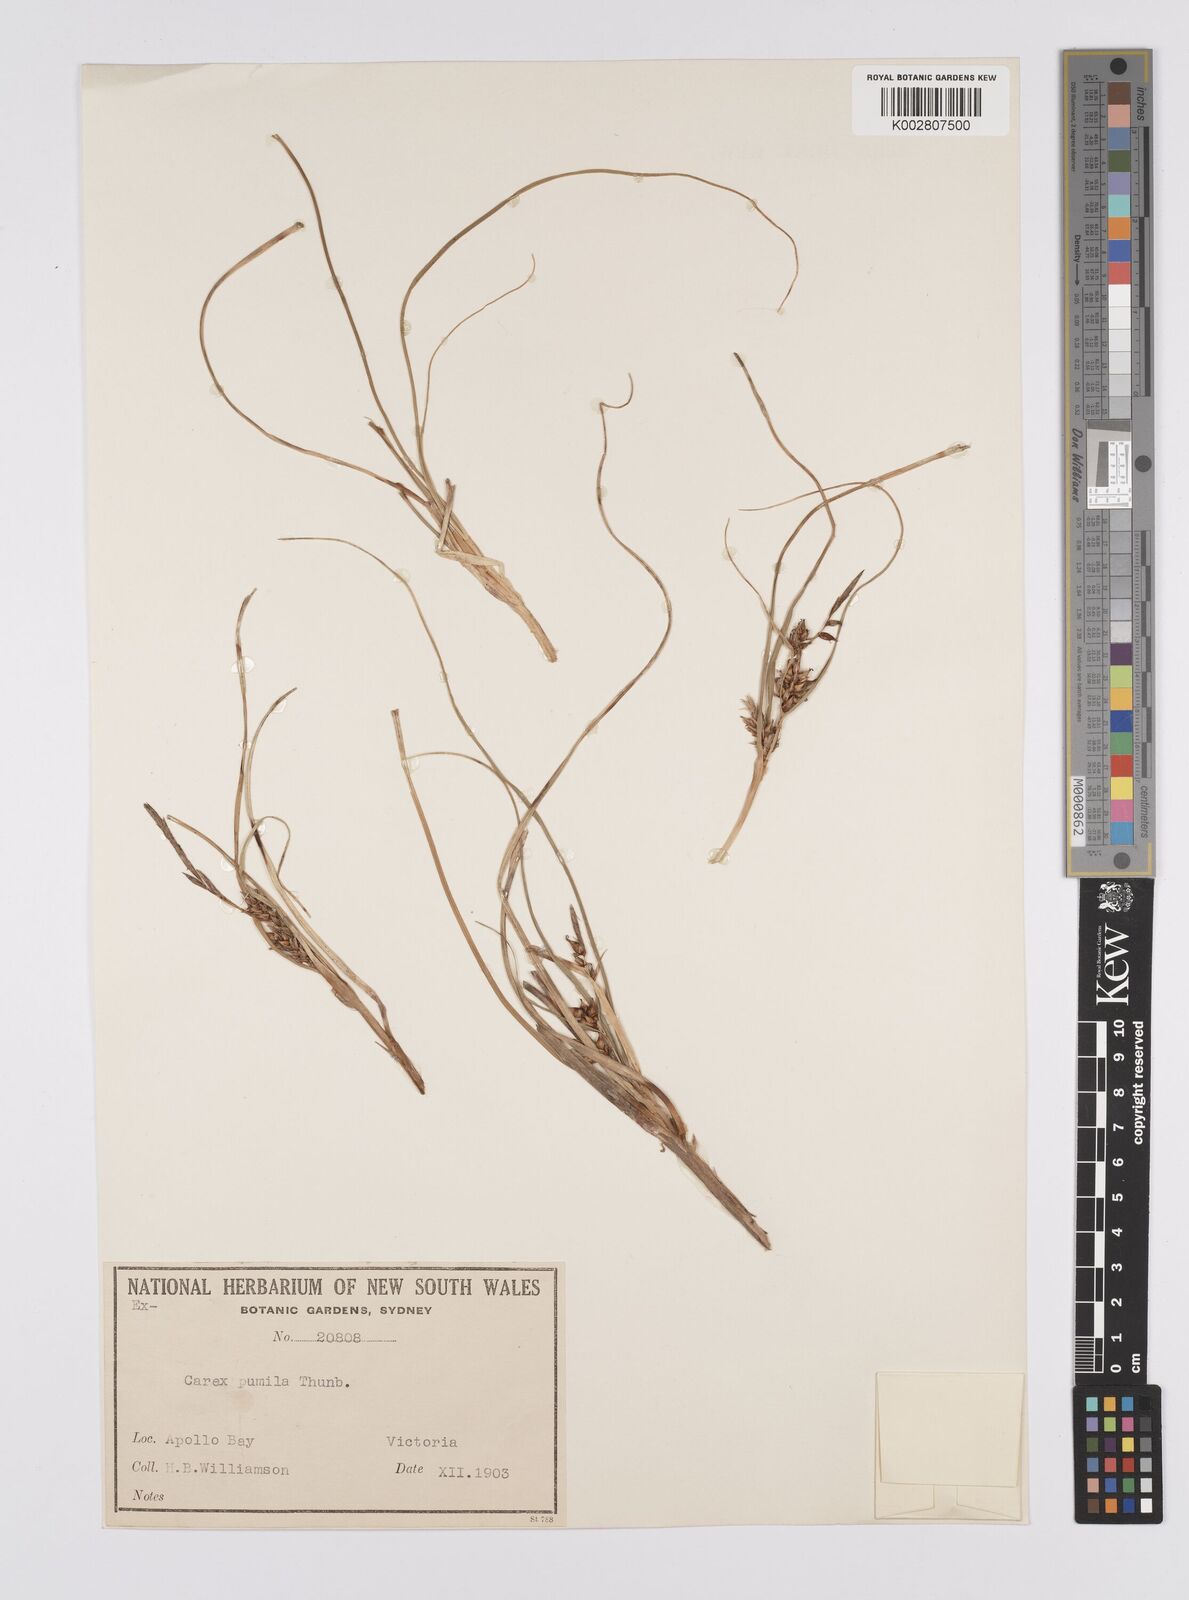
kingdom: Plantae
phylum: Tracheophyta
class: Liliopsida
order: Poales
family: Cyperaceae
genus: Carex
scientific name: Carex pumila
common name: Dwarf sedge
